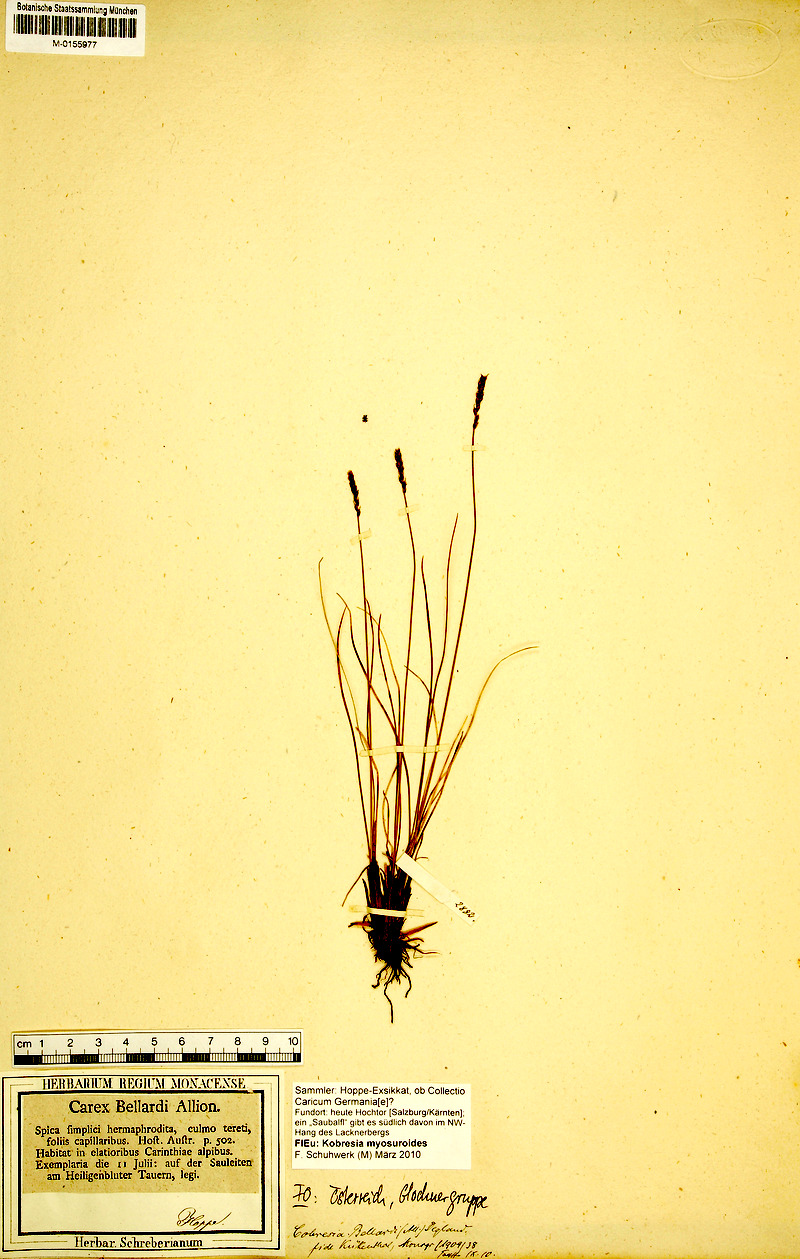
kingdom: Plantae
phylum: Tracheophyta
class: Liliopsida
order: Poales
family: Cyperaceae
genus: Carex
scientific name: Carex myosuroides
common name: Bellard's bog sedge
